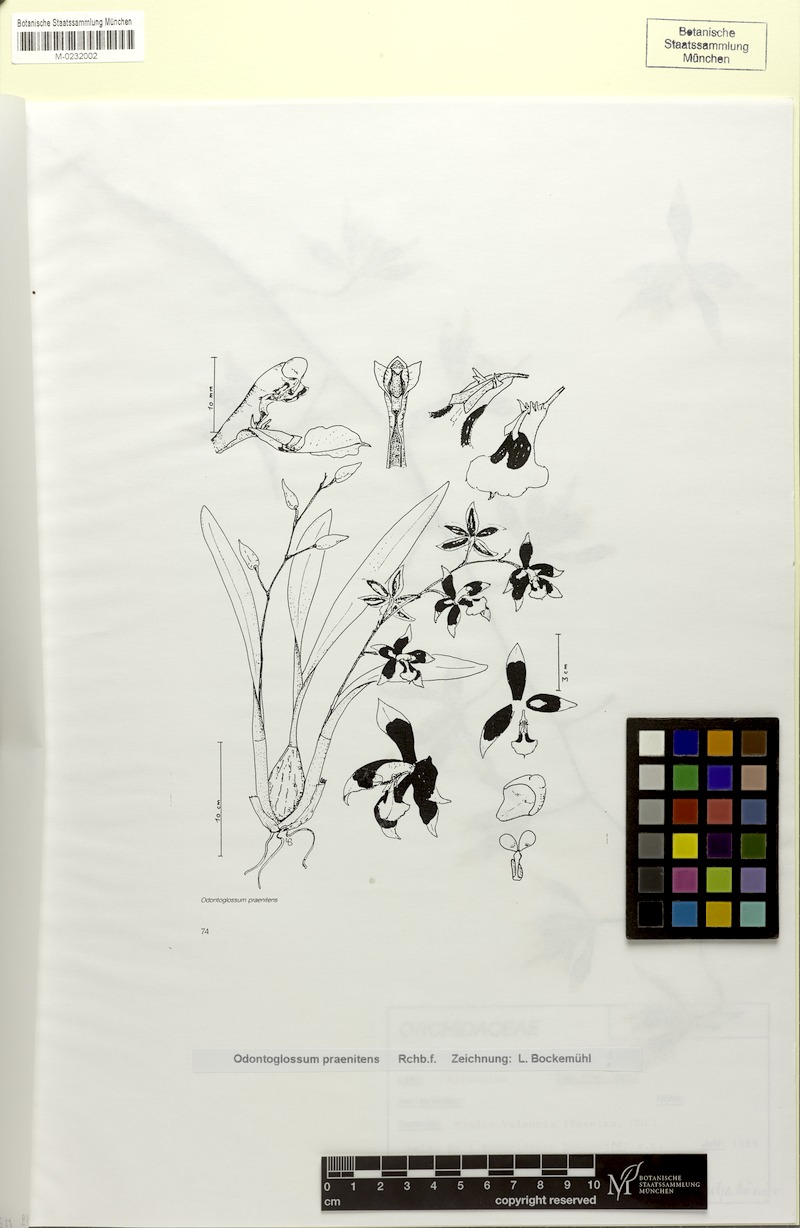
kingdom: Plantae
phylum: Tracheophyta
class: Liliopsida
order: Asparagales
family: Orchidaceae
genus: Oncidium
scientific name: Oncidium praenitens
